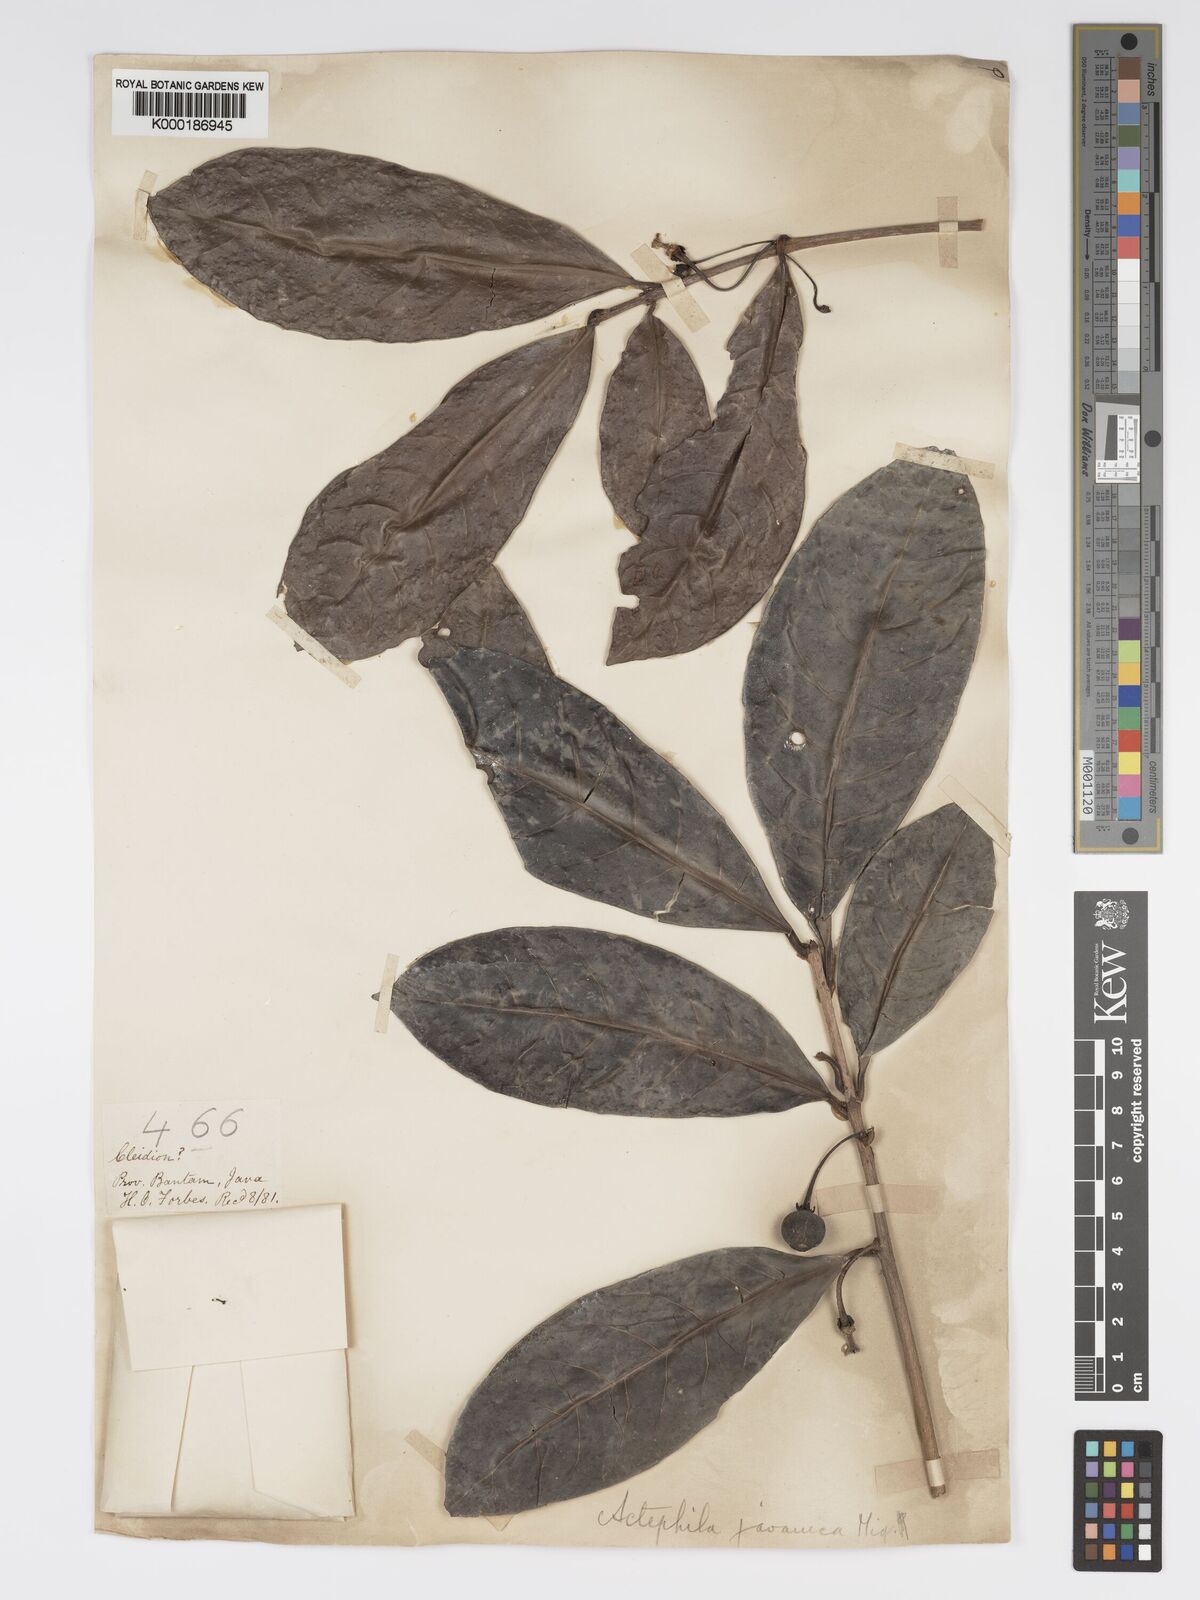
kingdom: Plantae
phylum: Tracheophyta
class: Magnoliopsida
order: Malpighiales
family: Phyllanthaceae
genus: Actephila
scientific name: Actephila
